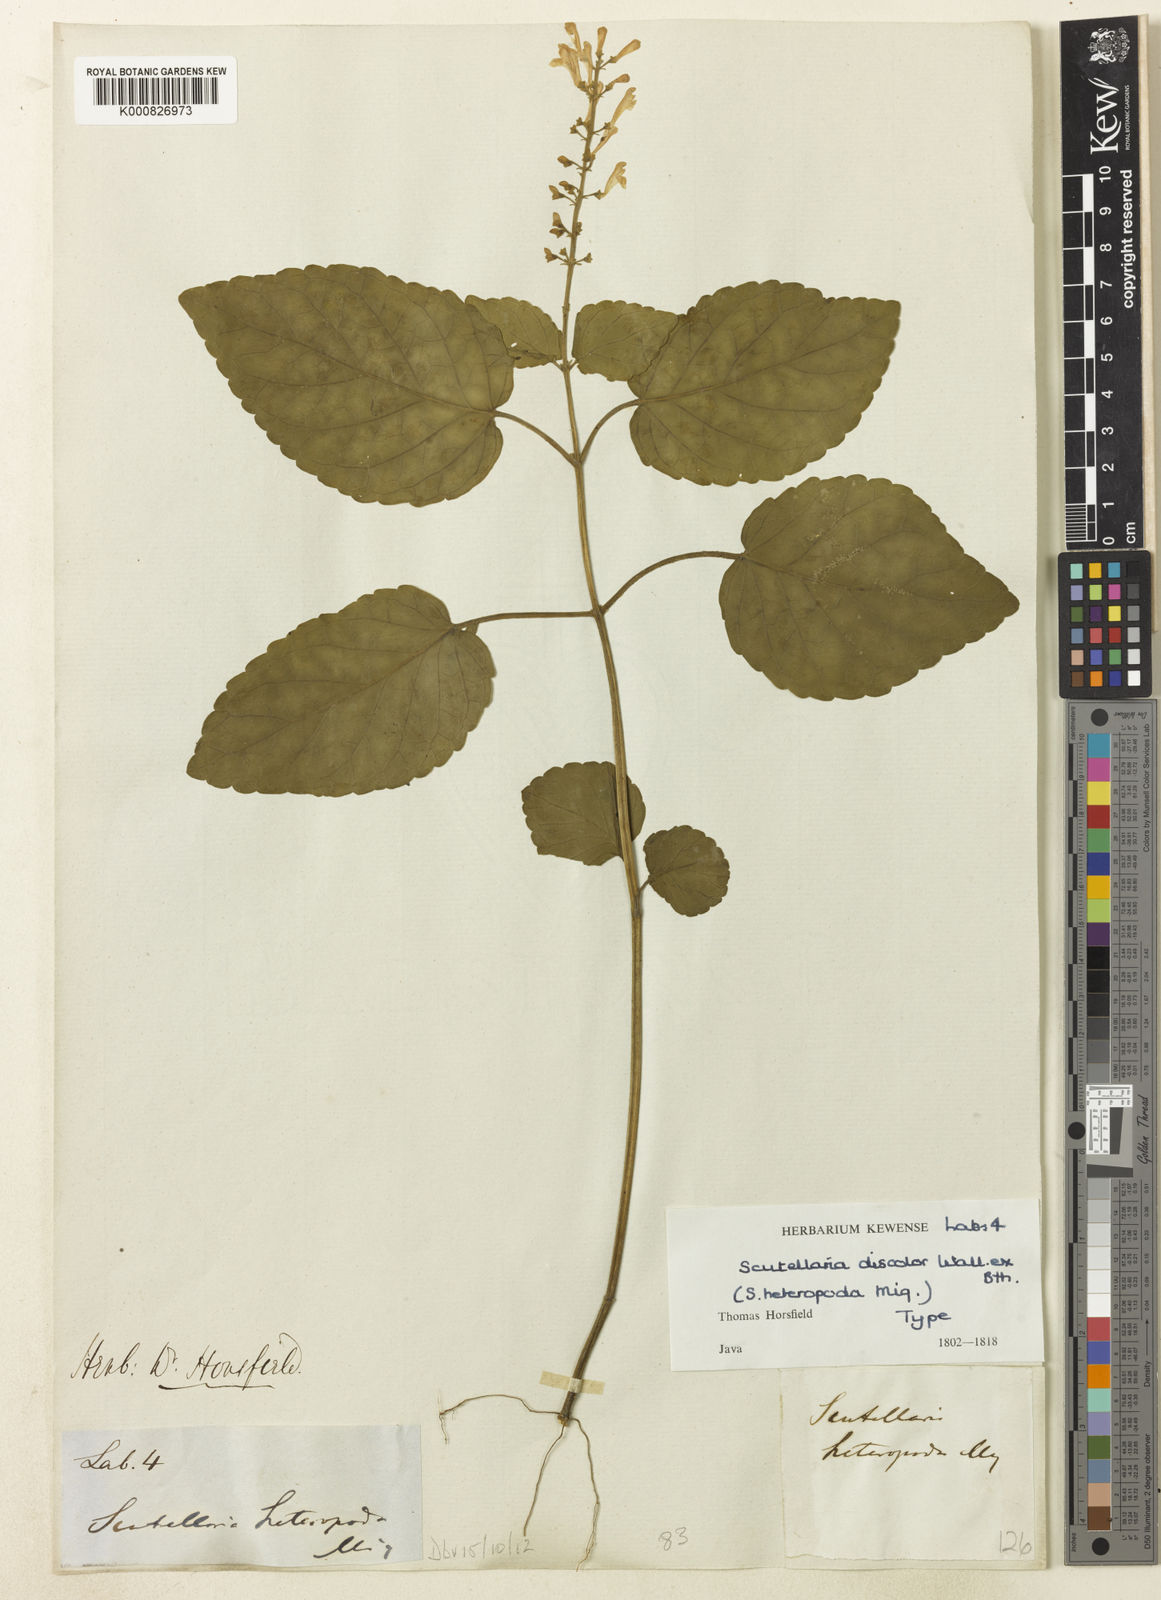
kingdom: Plantae
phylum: Tracheophyta
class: Magnoliopsida
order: Lamiales
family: Lamiaceae
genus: Scutellaria
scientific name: Scutellaria discolor
